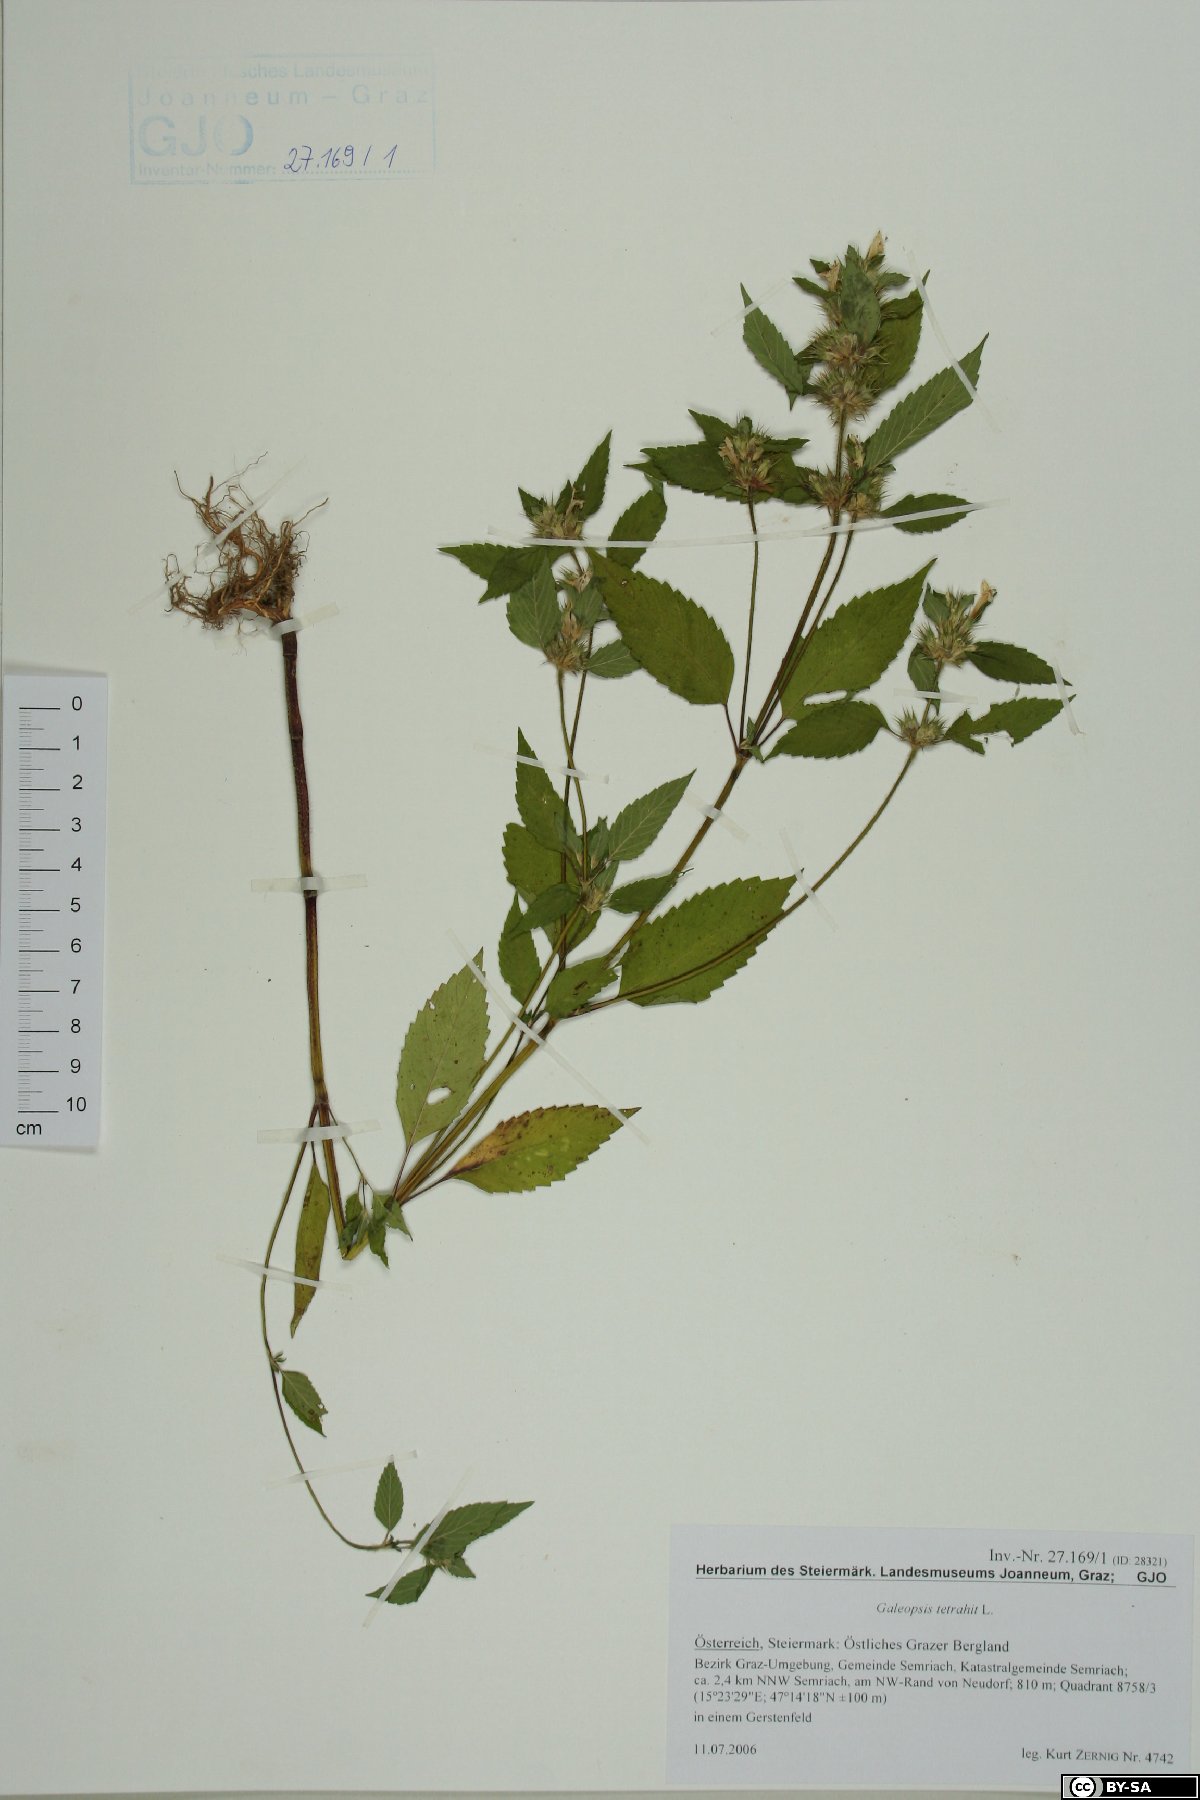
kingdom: Plantae
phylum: Tracheophyta
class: Magnoliopsida
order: Lamiales
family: Lamiaceae
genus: Galeopsis
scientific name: Galeopsis tetrahit
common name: Common hemp-nettle
